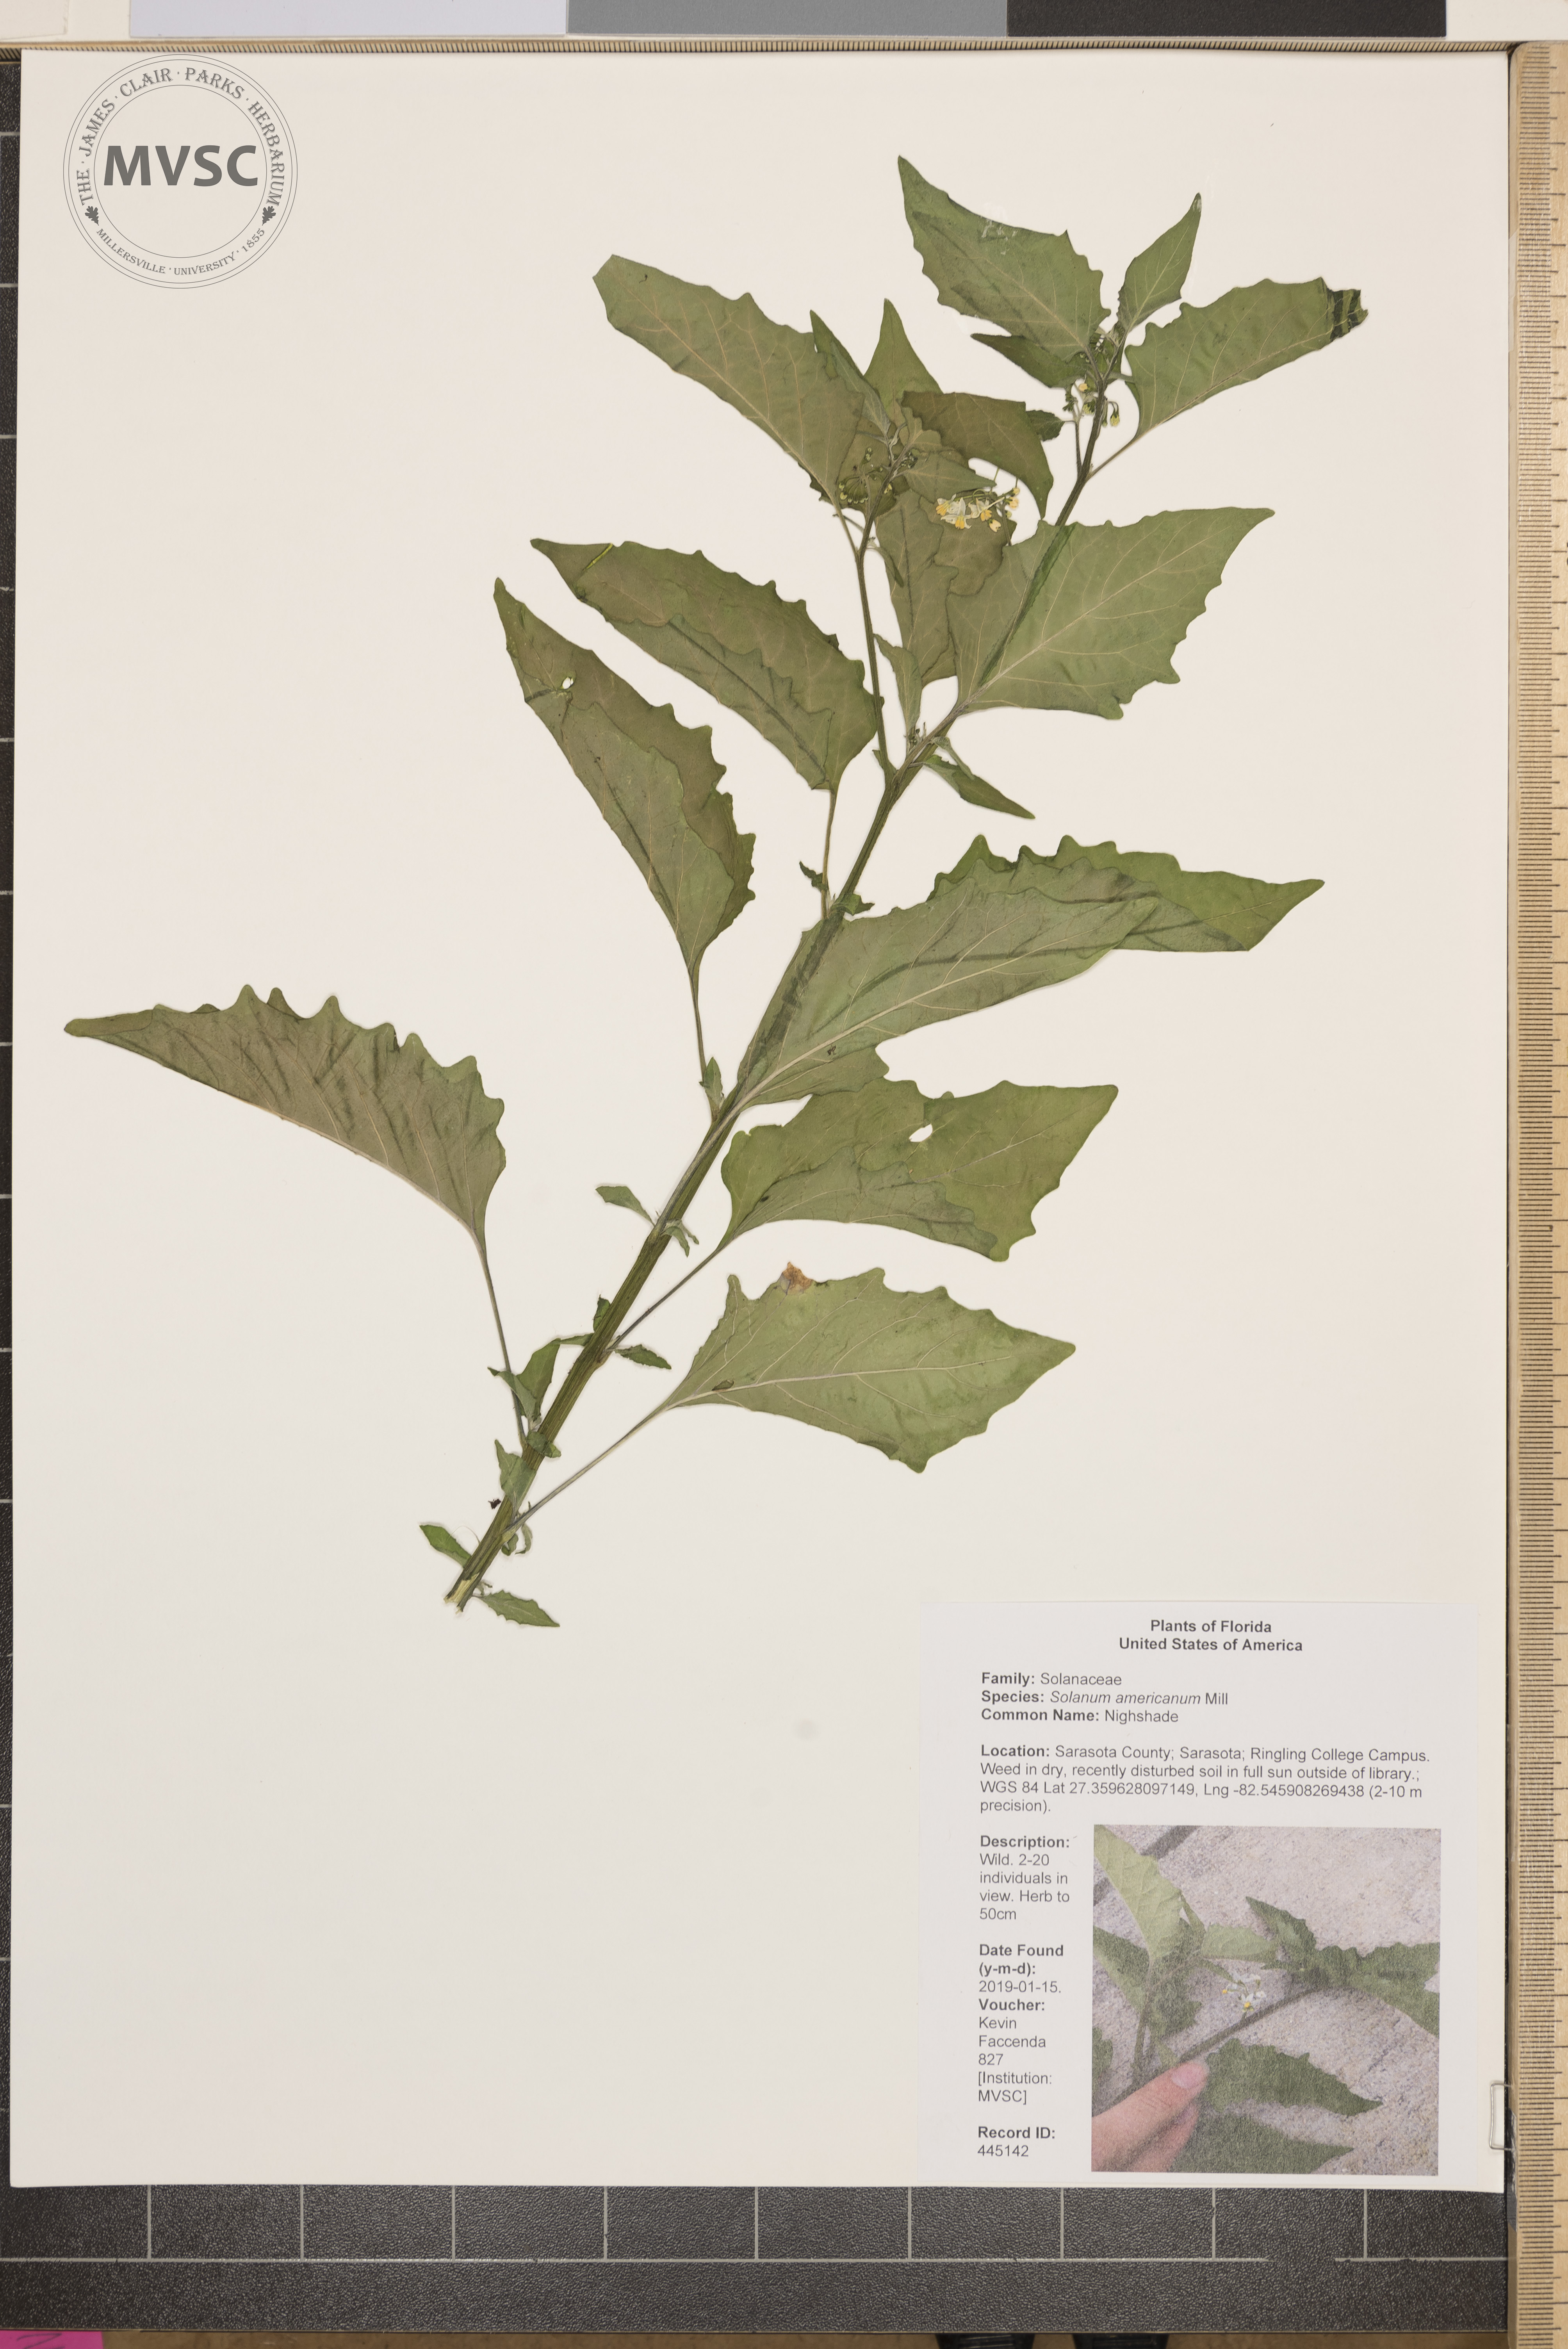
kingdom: Plantae
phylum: Tracheophyta
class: Magnoliopsida
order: Solanales
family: Solanaceae
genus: Solanum
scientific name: Solanum americanum
